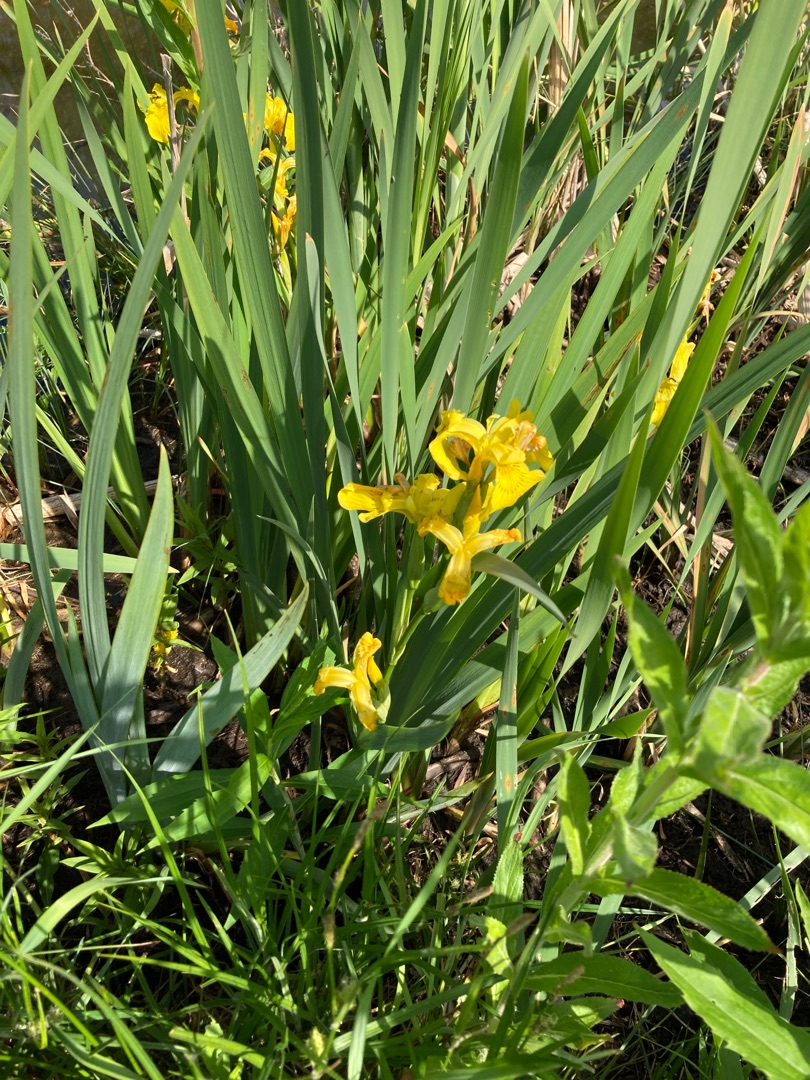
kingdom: Plantae
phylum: Tracheophyta
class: Liliopsida
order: Asparagales
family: Iridaceae
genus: Iris
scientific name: Iris pseudacorus
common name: Gul iris
